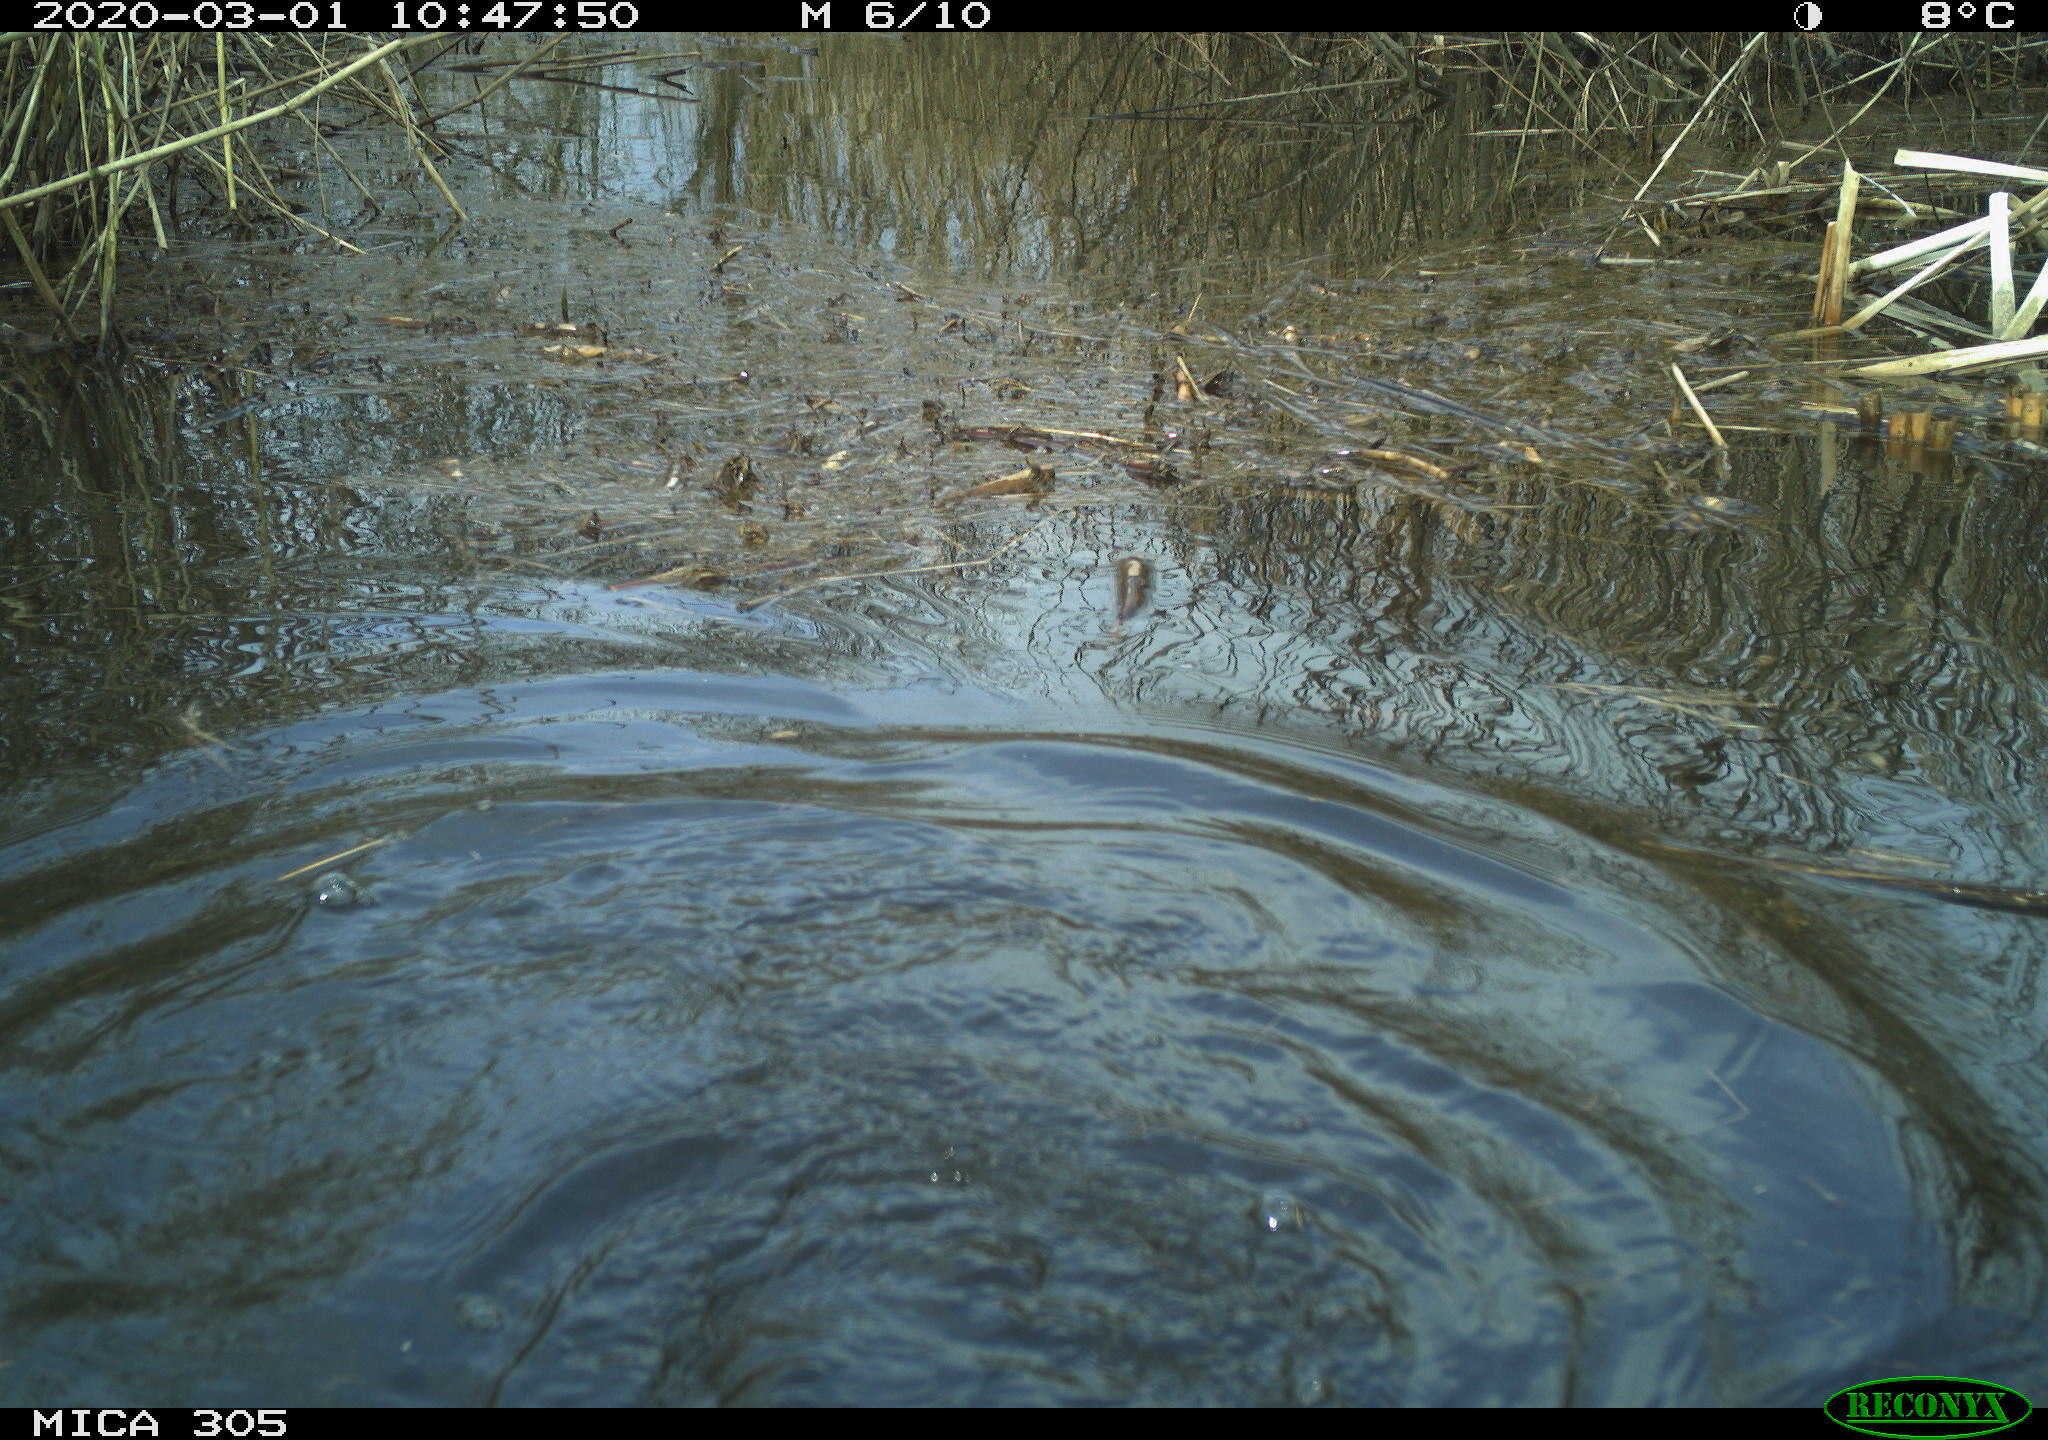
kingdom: Animalia
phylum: Chordata
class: Aves
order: Suliformes
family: Phalacrocoracidae
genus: Phalacrocorax
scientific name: Phalacrocorax carbo
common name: Great cormorant
